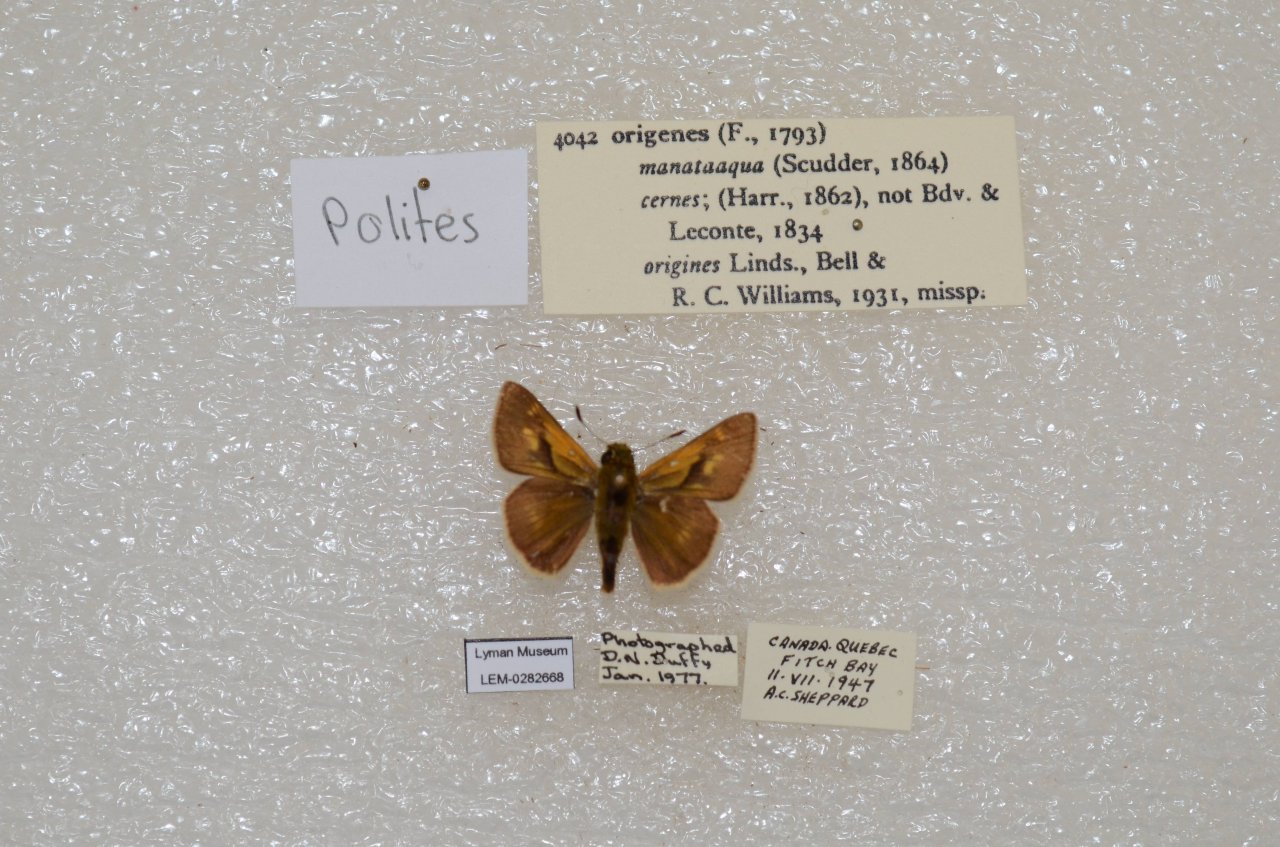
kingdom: Animalia
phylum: Arthropoda
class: Insecta
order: Lepidoptera
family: Hesperiidae
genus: Polites
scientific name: Polites
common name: Crossline Skipper
